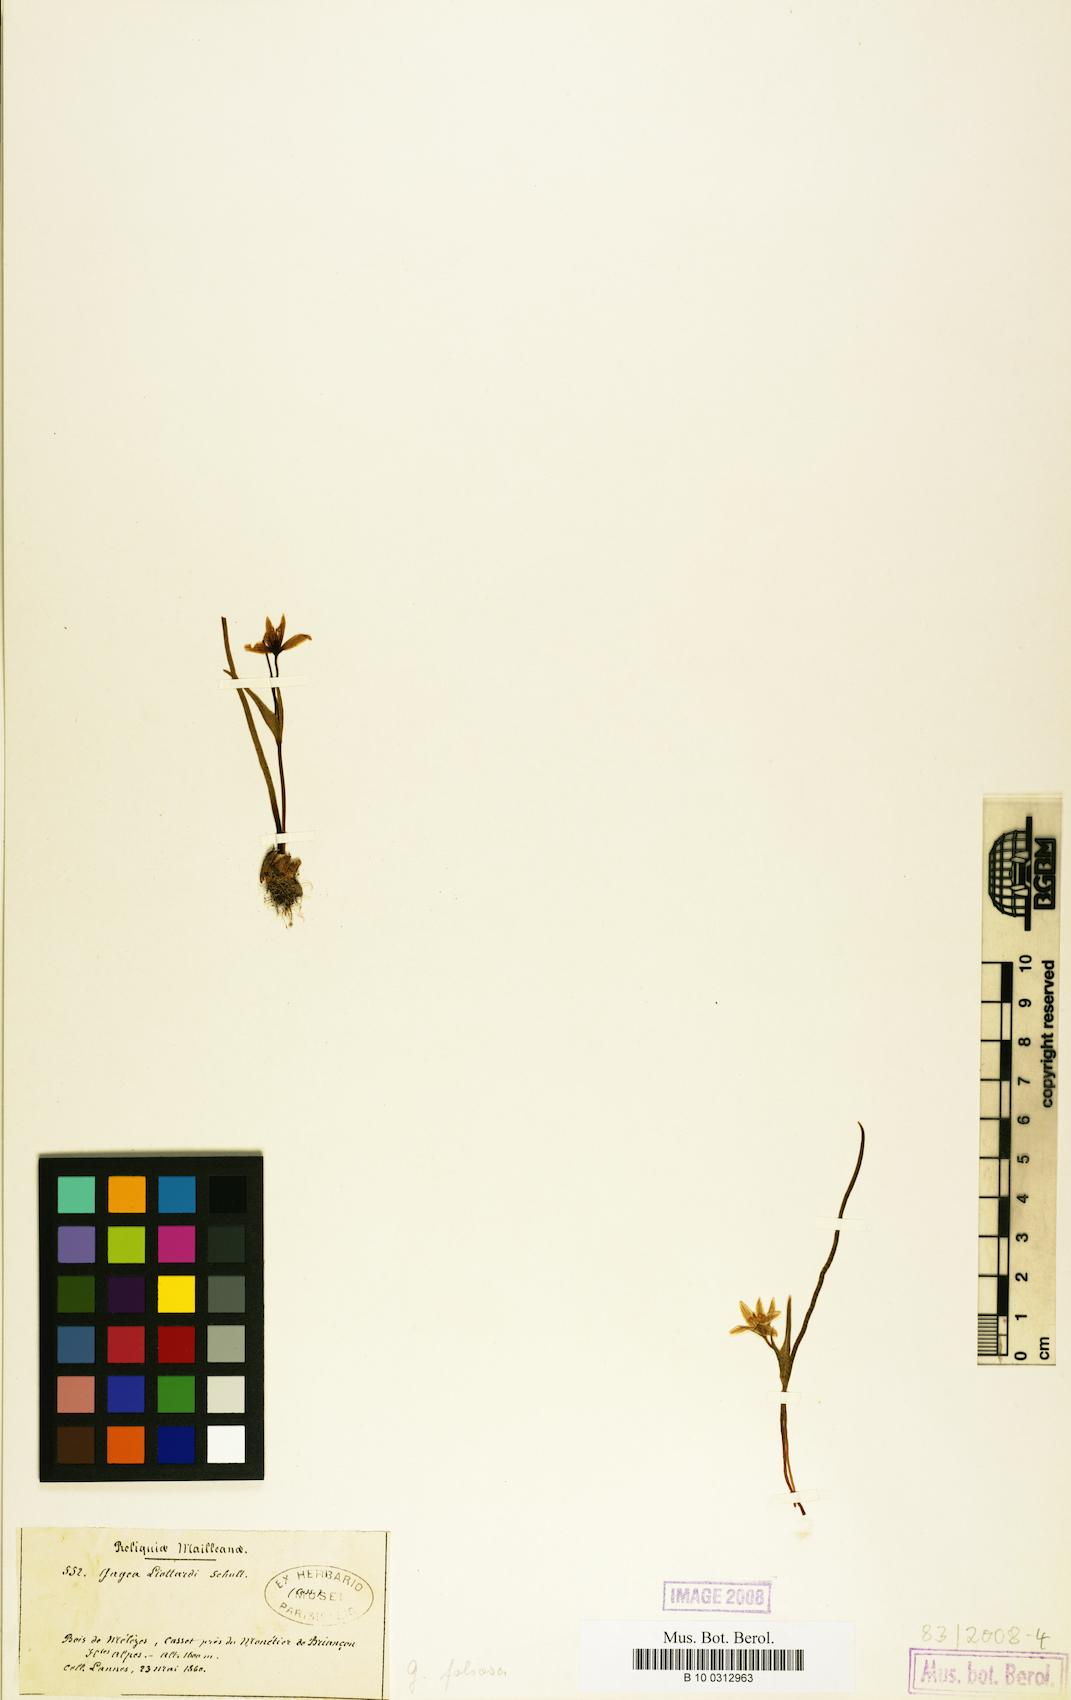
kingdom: Plantae
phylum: Tracheophyta
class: Liliopsida
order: Liliales
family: Liliaceae
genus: Gagea
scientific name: Gagea foliosa
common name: Leafy gagea
